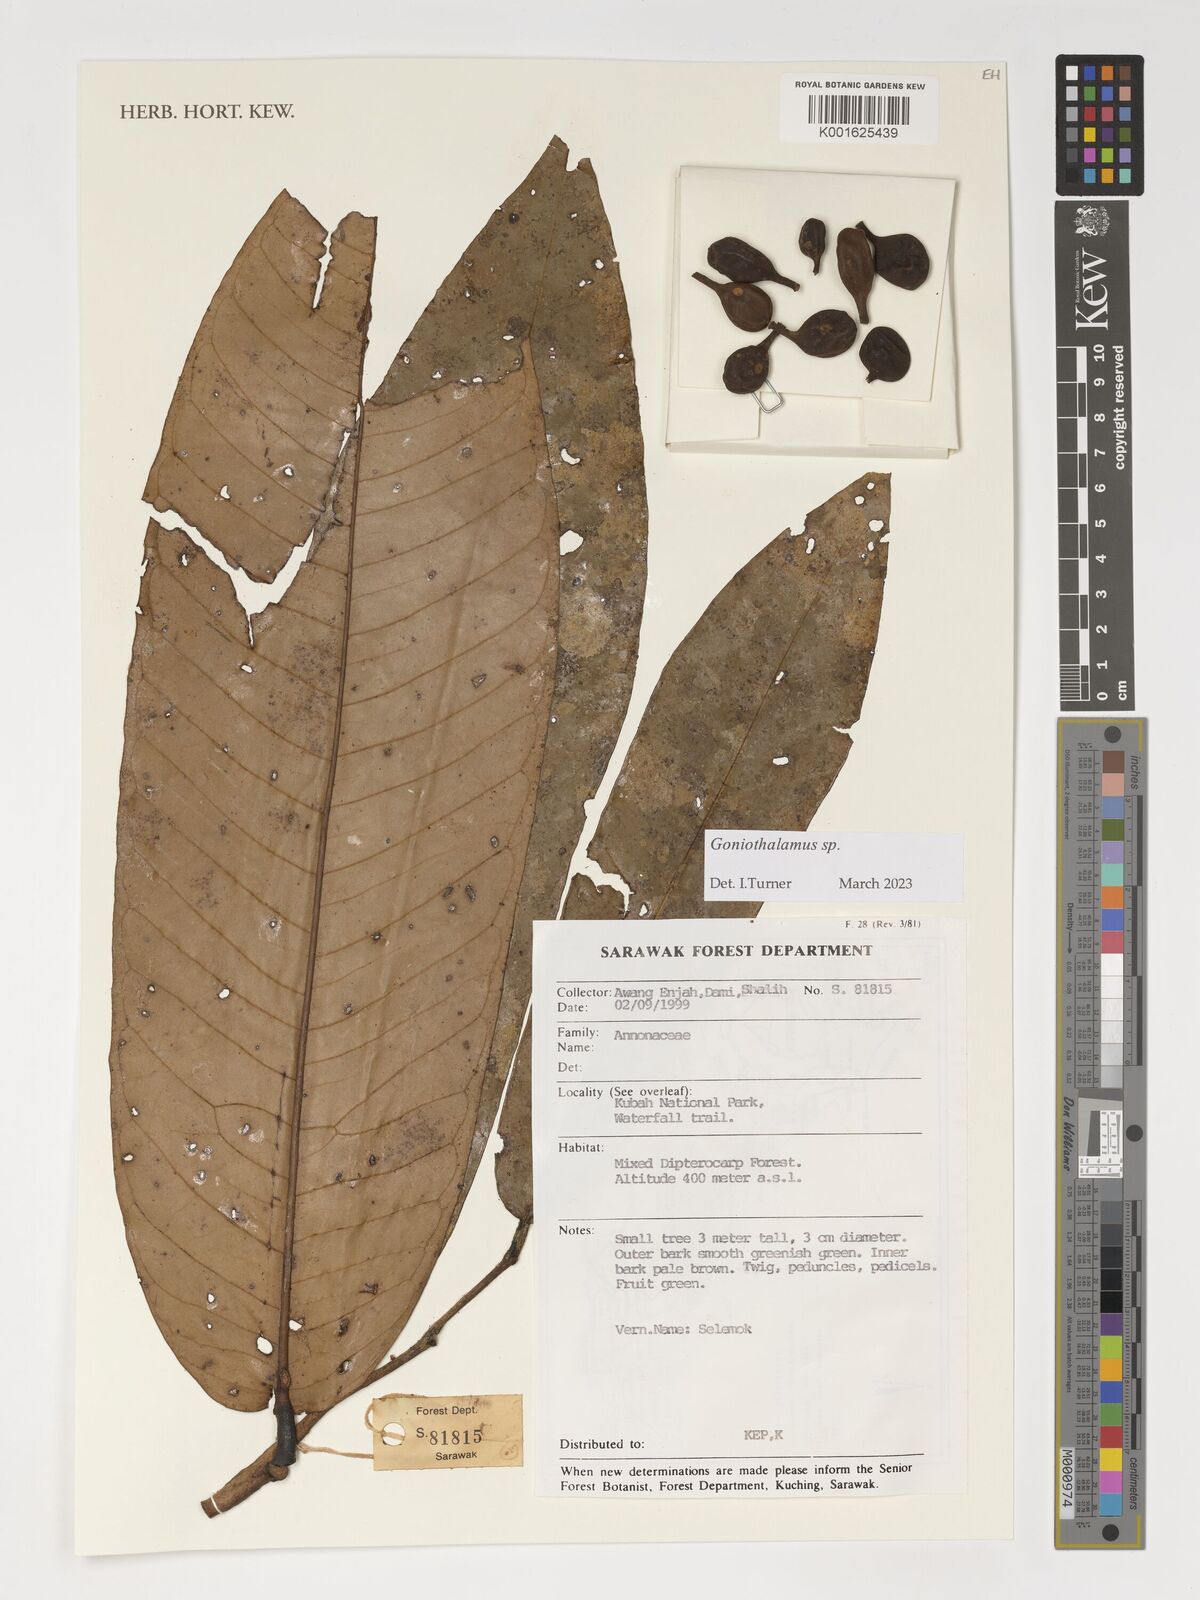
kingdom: Plantae
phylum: Tracheophyta
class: Magnoliopsida
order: Magnoliales
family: Annonaceae
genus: Goniothalamus
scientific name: Goniothalamus
